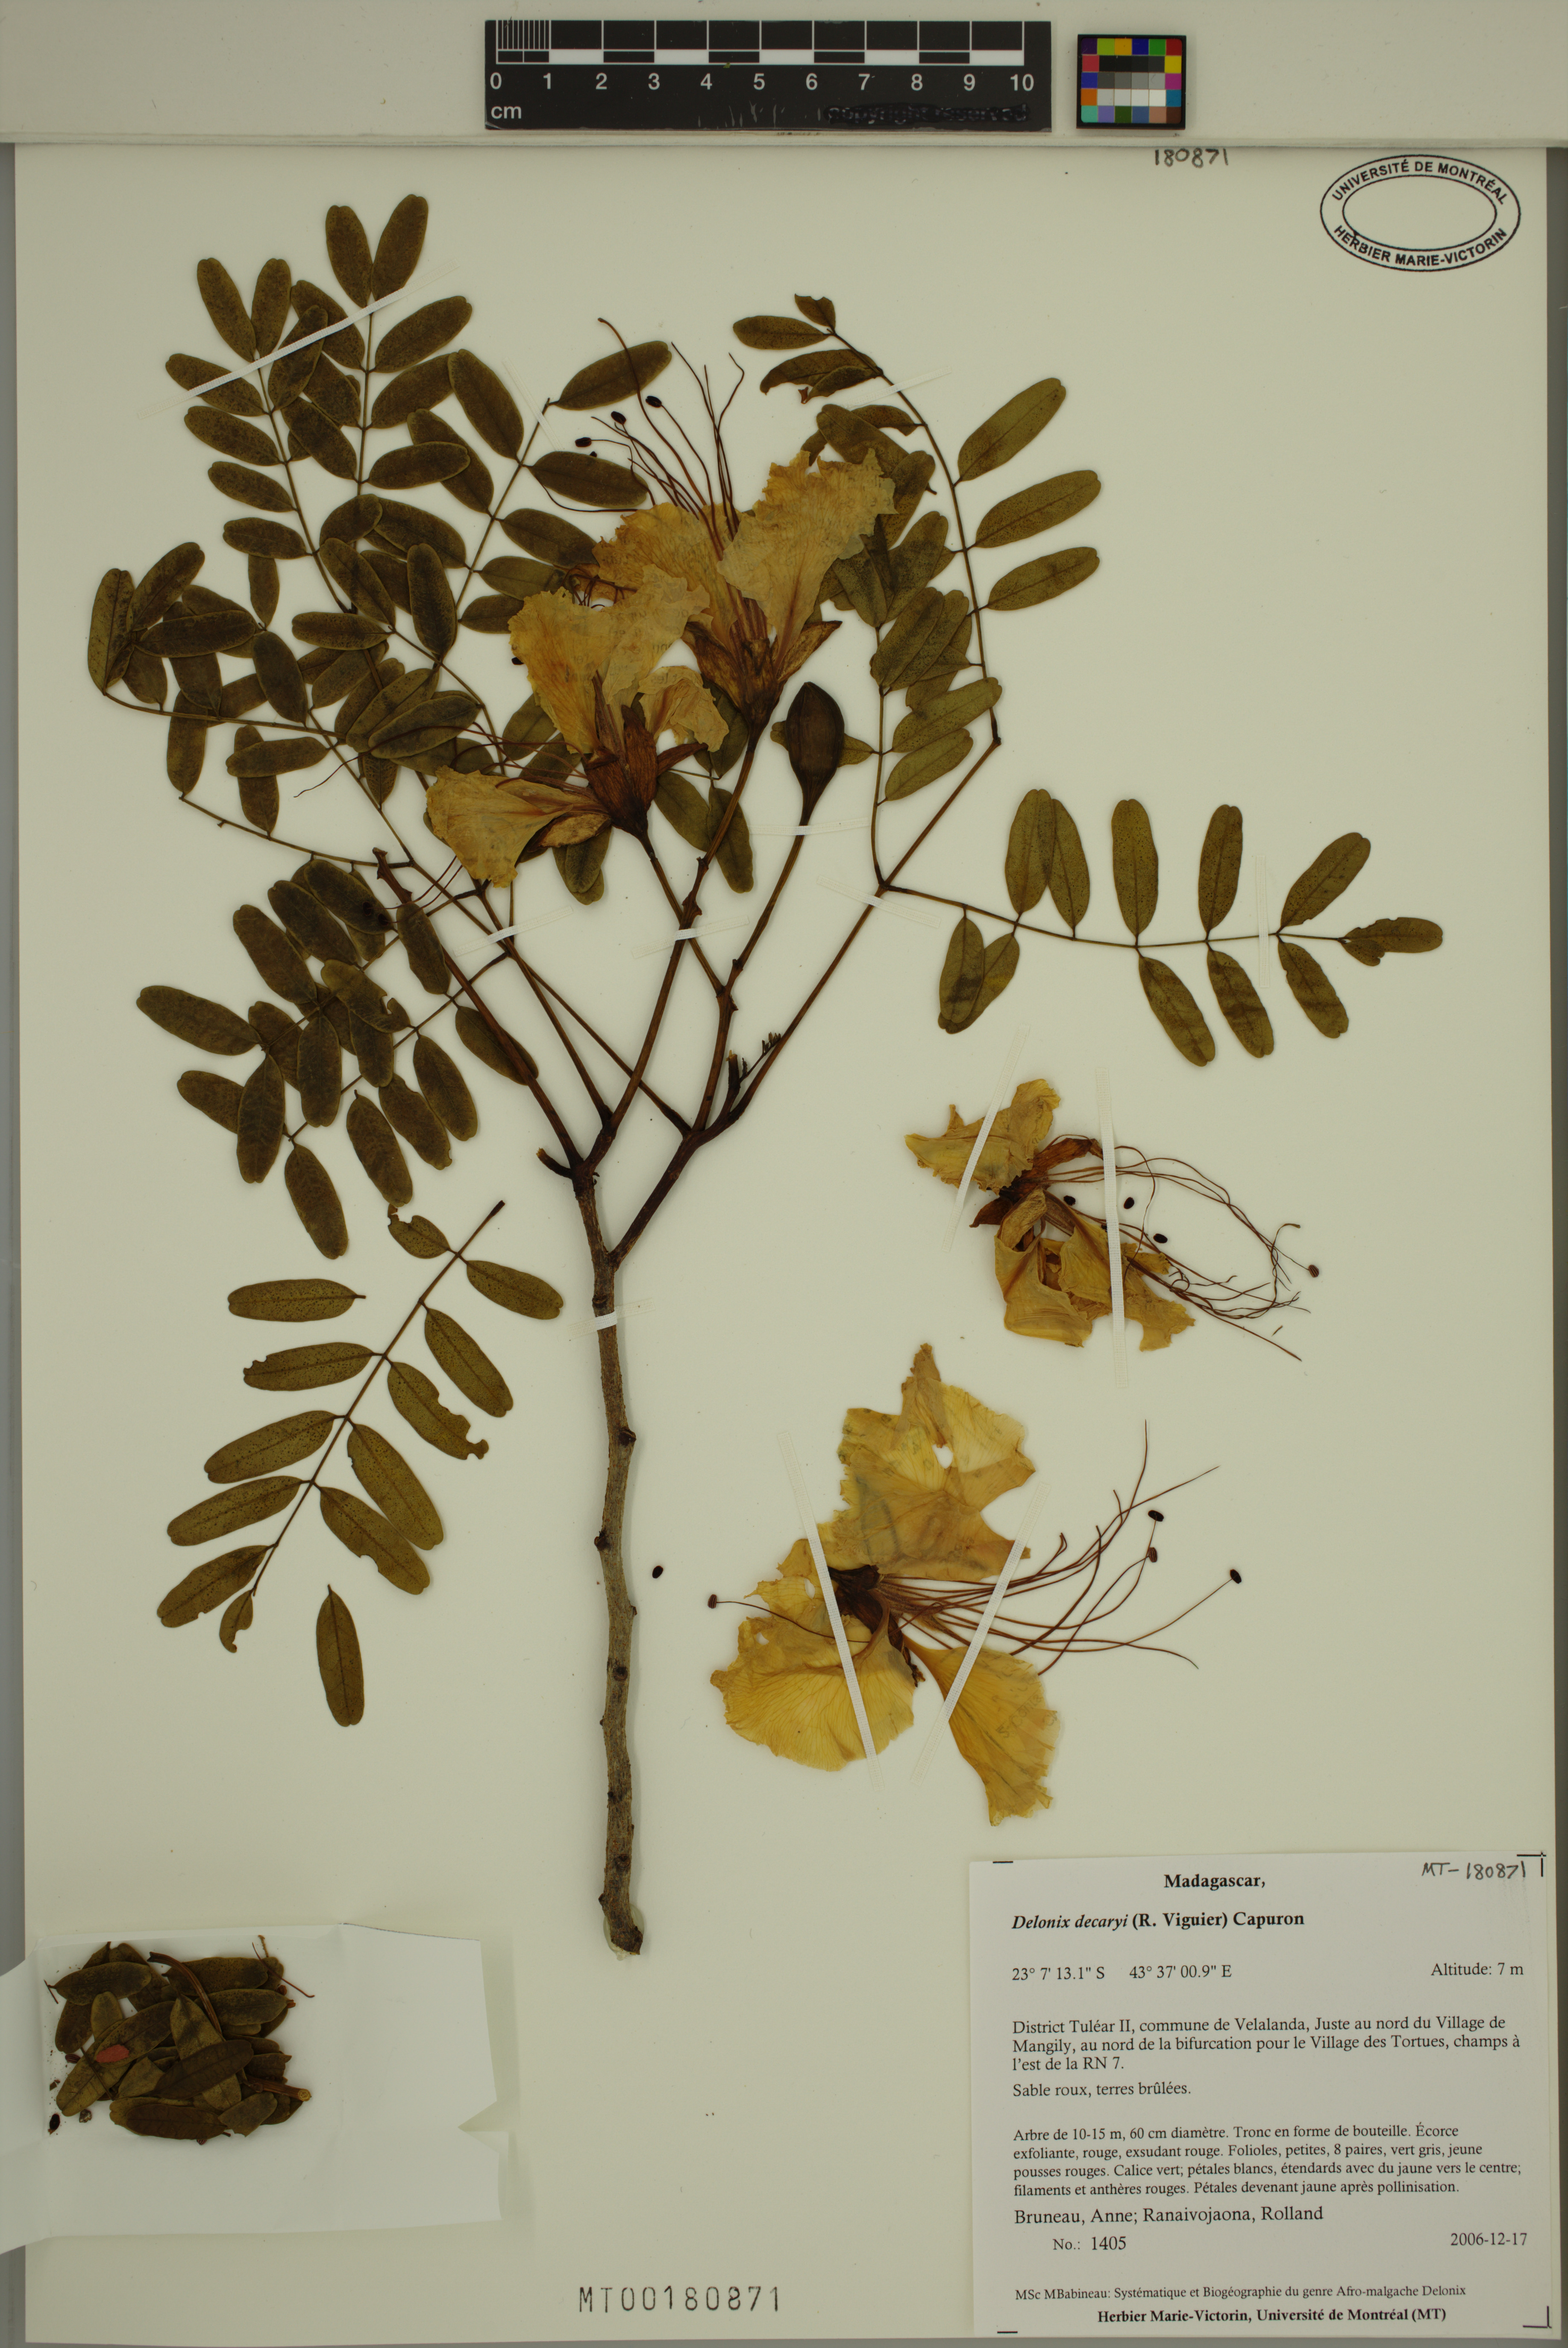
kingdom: Plantae
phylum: Tracheophyta
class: Magnoliopsida
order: Fabales
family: Fabaceae
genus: Delonix
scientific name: Delonix decaryi
